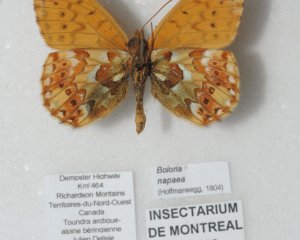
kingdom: Animalia
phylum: Arthropoda
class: Insecta
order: Lepidoptera
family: Nymphalidae
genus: Boloria
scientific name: Boloria alaskensis
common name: Alaskan Fritillary
